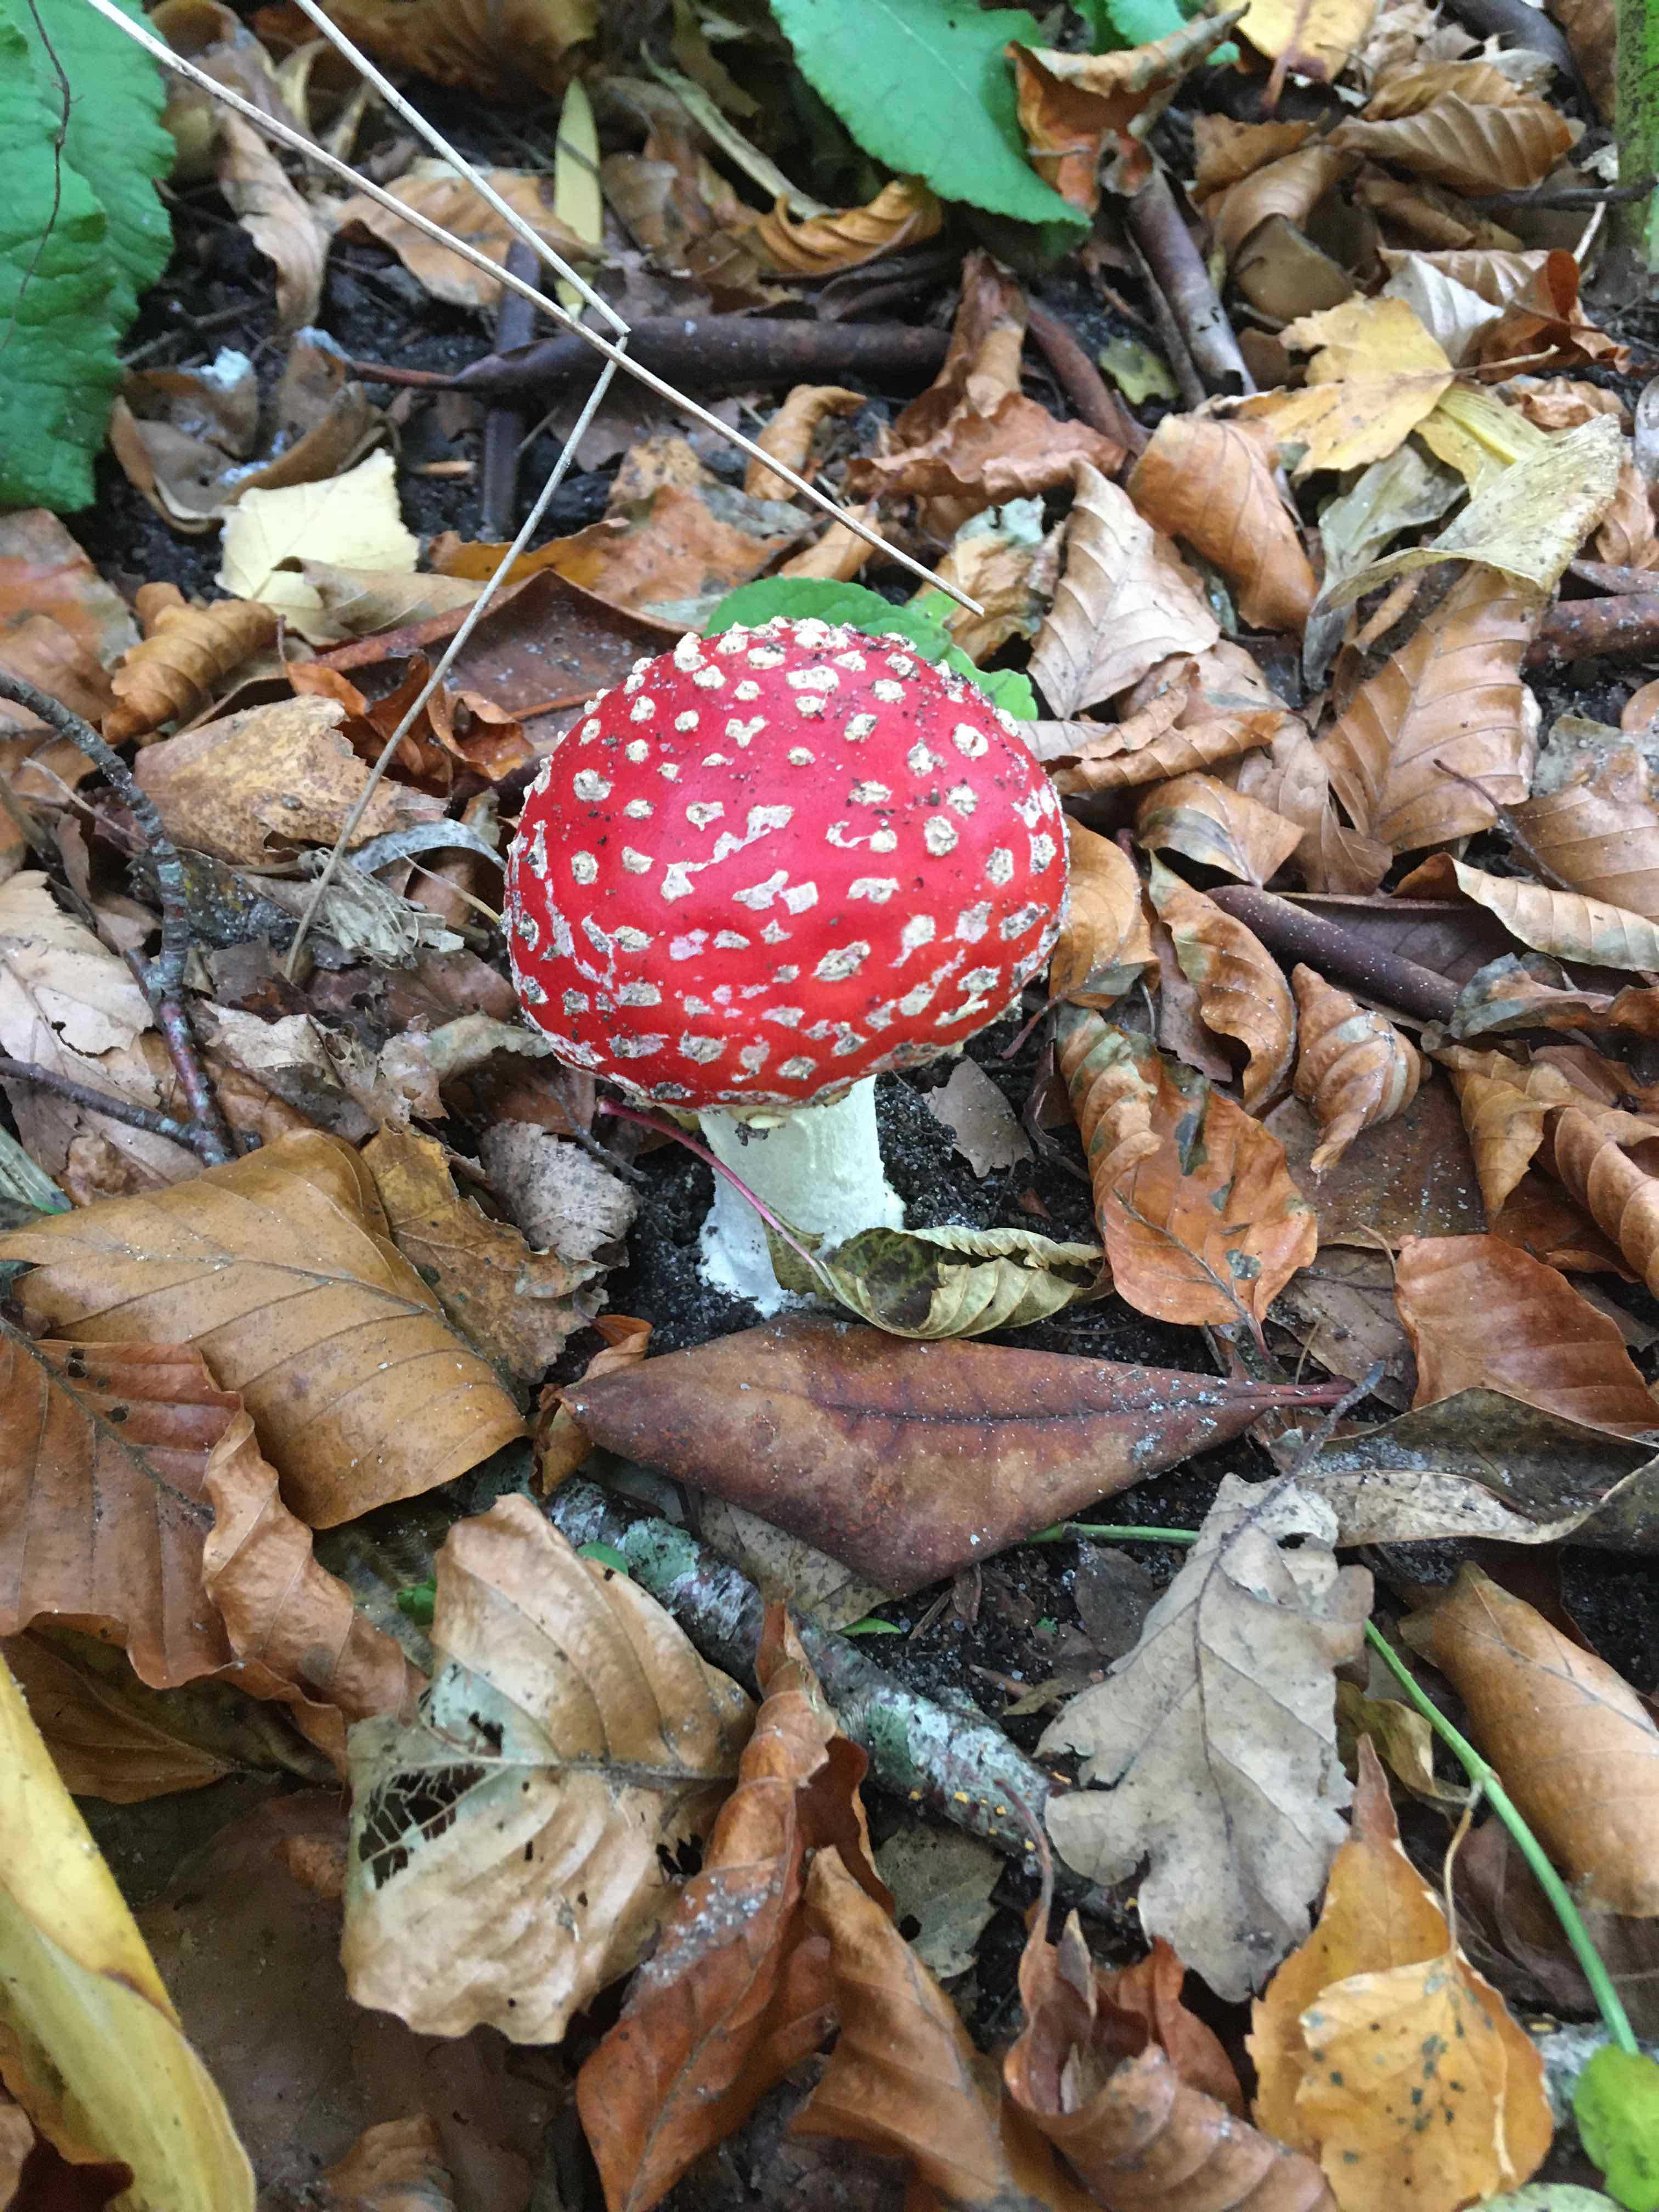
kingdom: Fungi
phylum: Basidiomycota
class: Agaricomycetes
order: Agaricales
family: Amanitaceae
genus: Amanita
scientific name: Amanita muscaria
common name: rød fluesvamp
